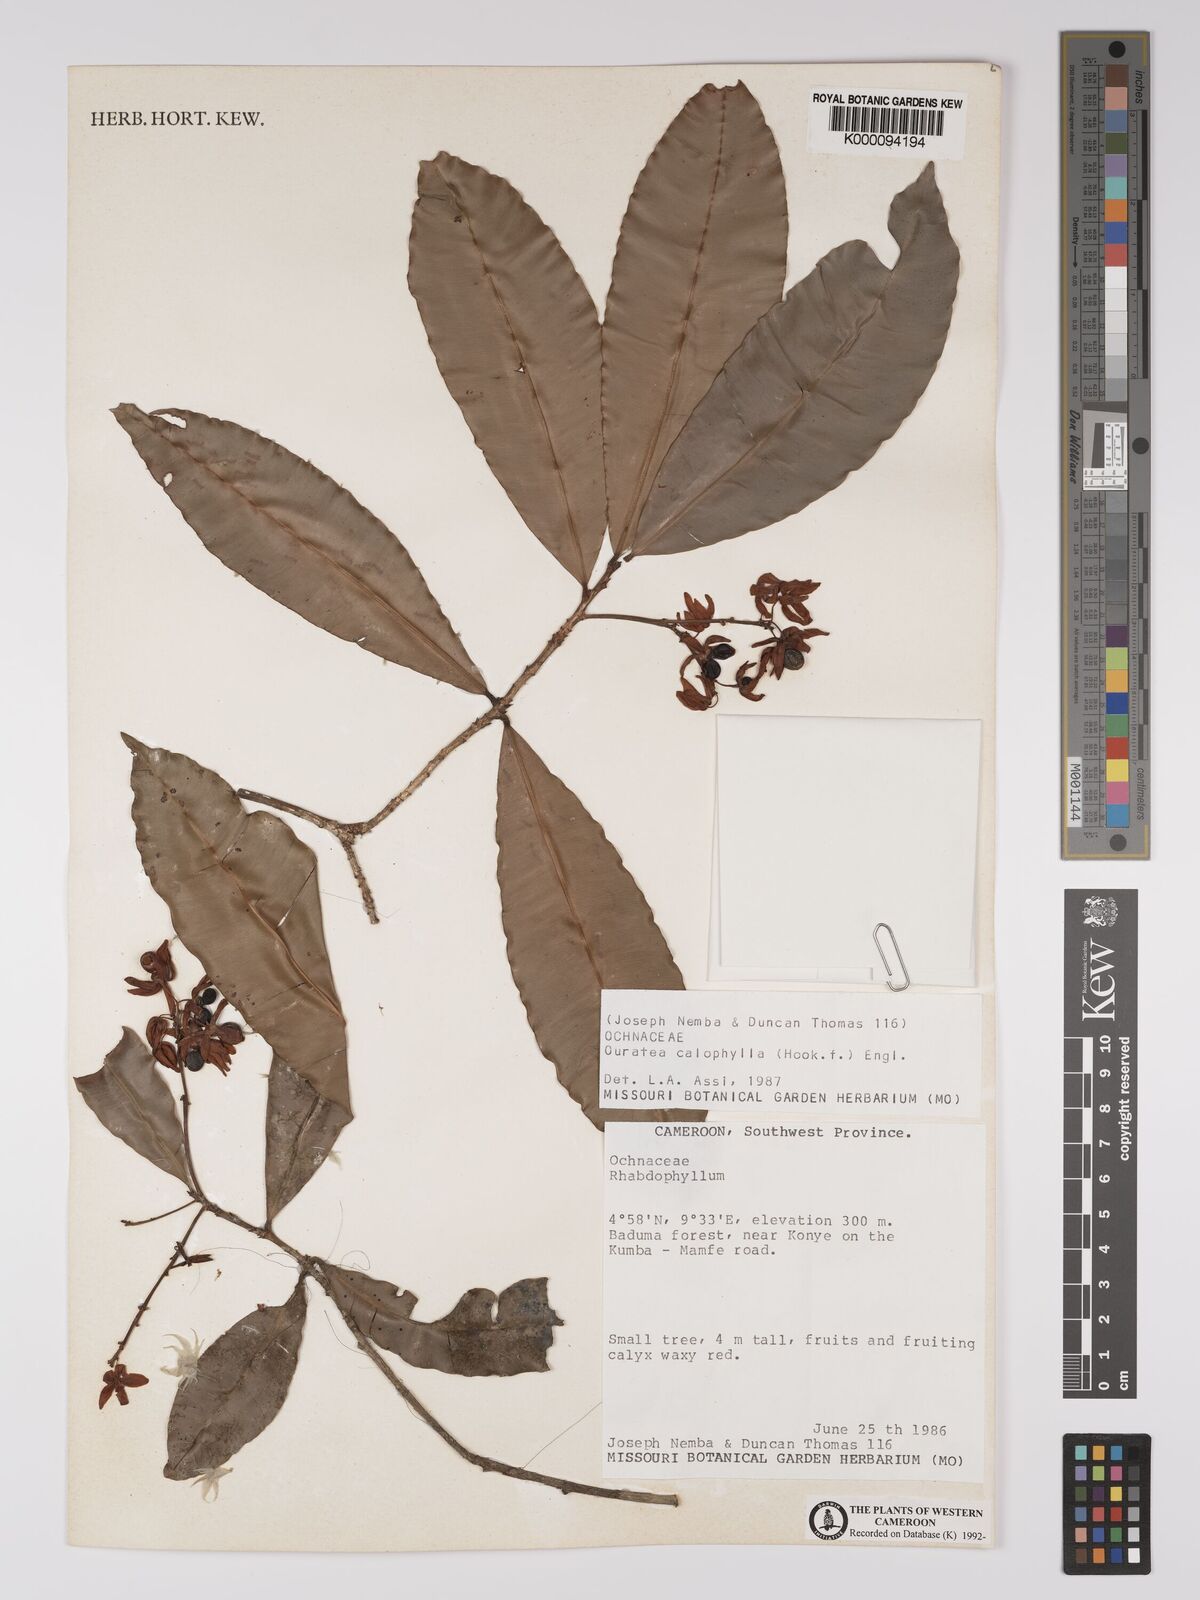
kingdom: Plantae
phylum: Tracheophyta
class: Magnoliopsida
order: Malpighiales
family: Ochnaceae
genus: Rhabdophyllum
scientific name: Rhabdophyllum calophyllum
